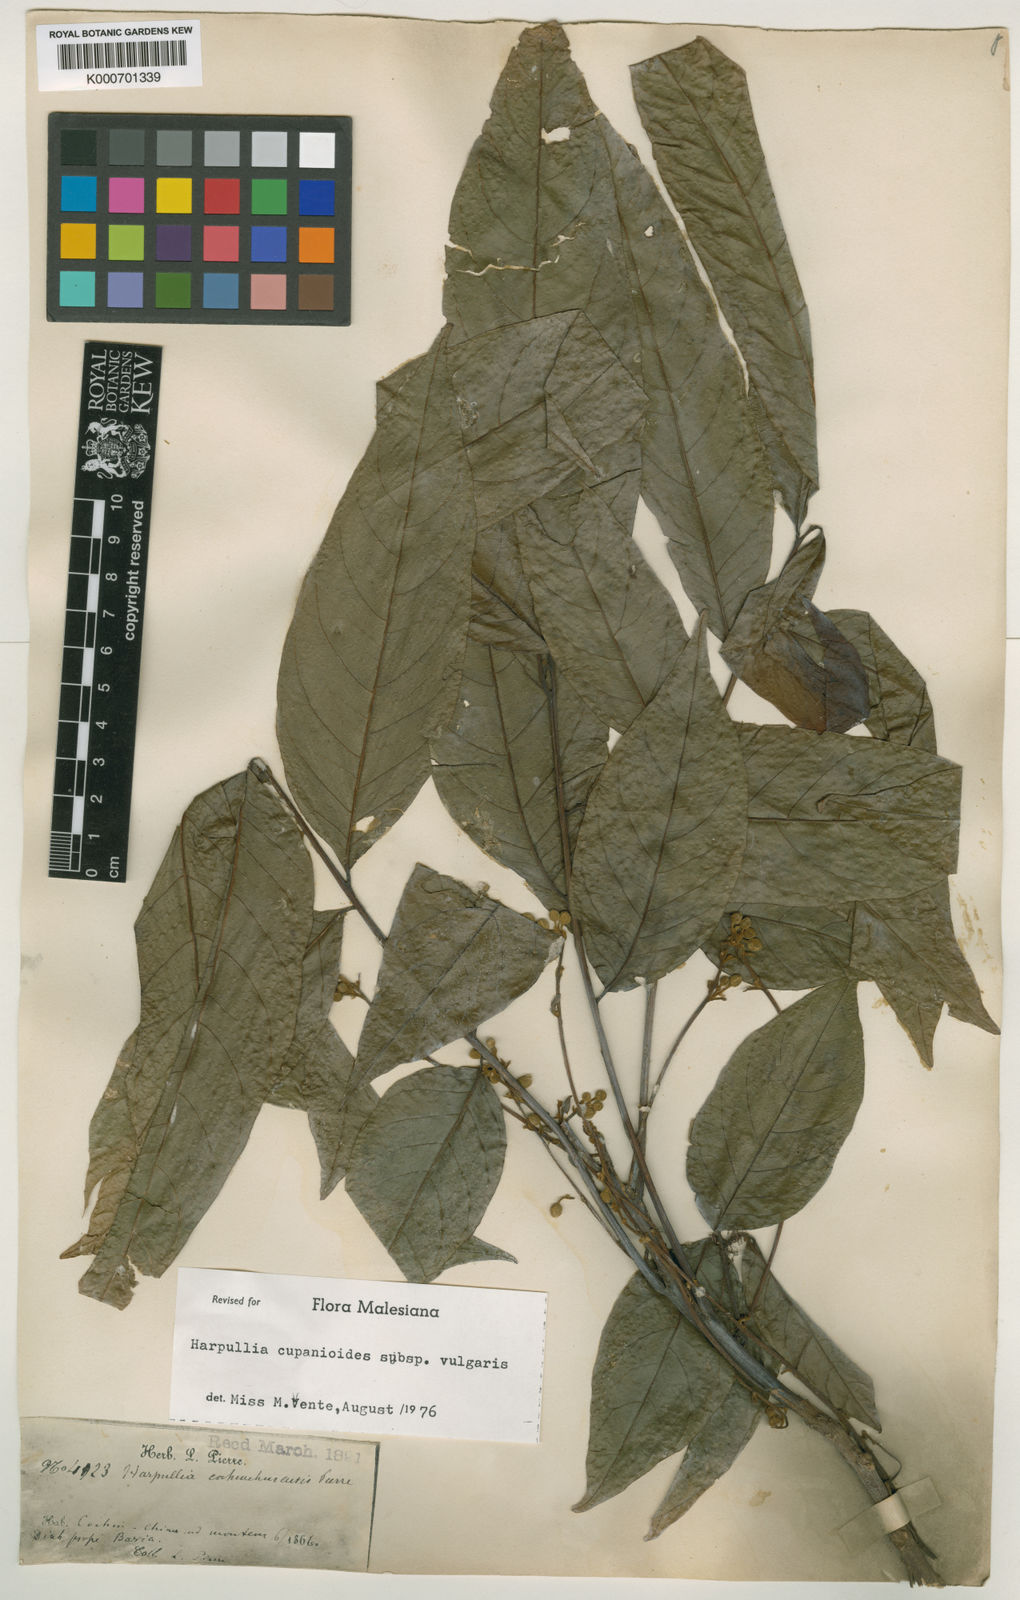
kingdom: Plantae
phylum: Tracheophyta
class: Magnoliopsida
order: Sapindales
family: Sapindaceae
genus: Harpullia
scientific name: Harpullia cupanioides
